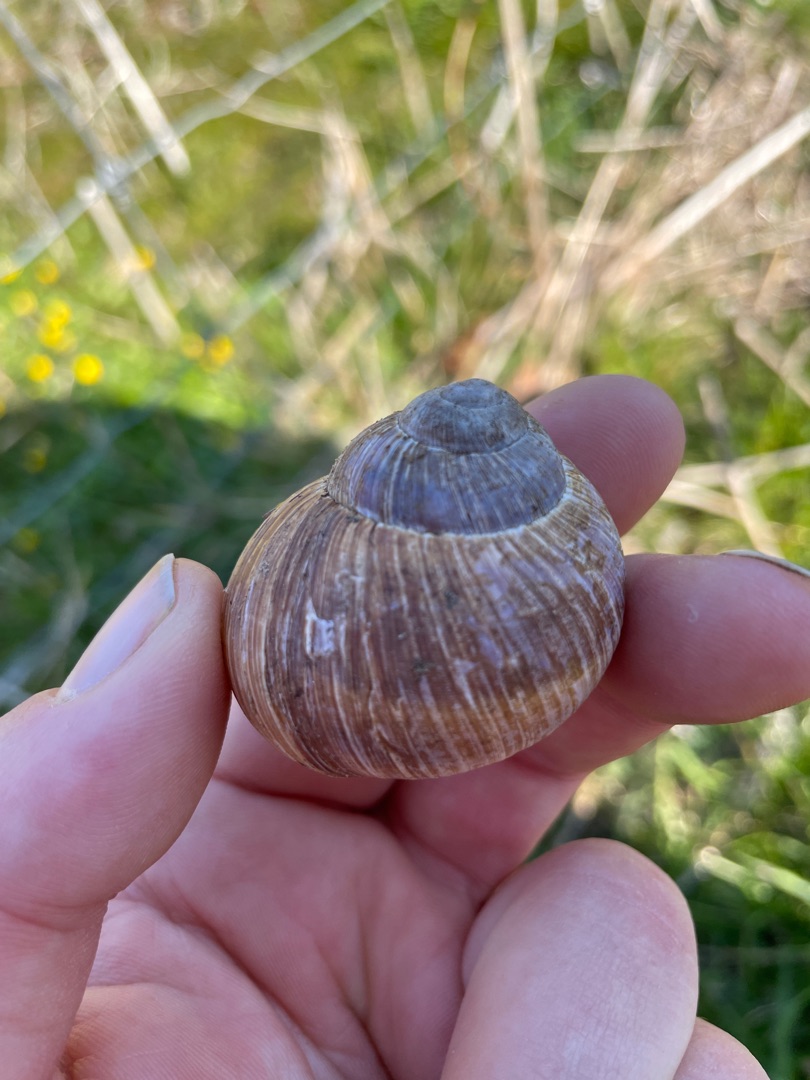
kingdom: Animalia
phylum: Mollusca
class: Gastropoda
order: Stylommatophora
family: Helicidae
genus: Helix
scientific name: Helix pomatia
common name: Vinbjergsnegl
